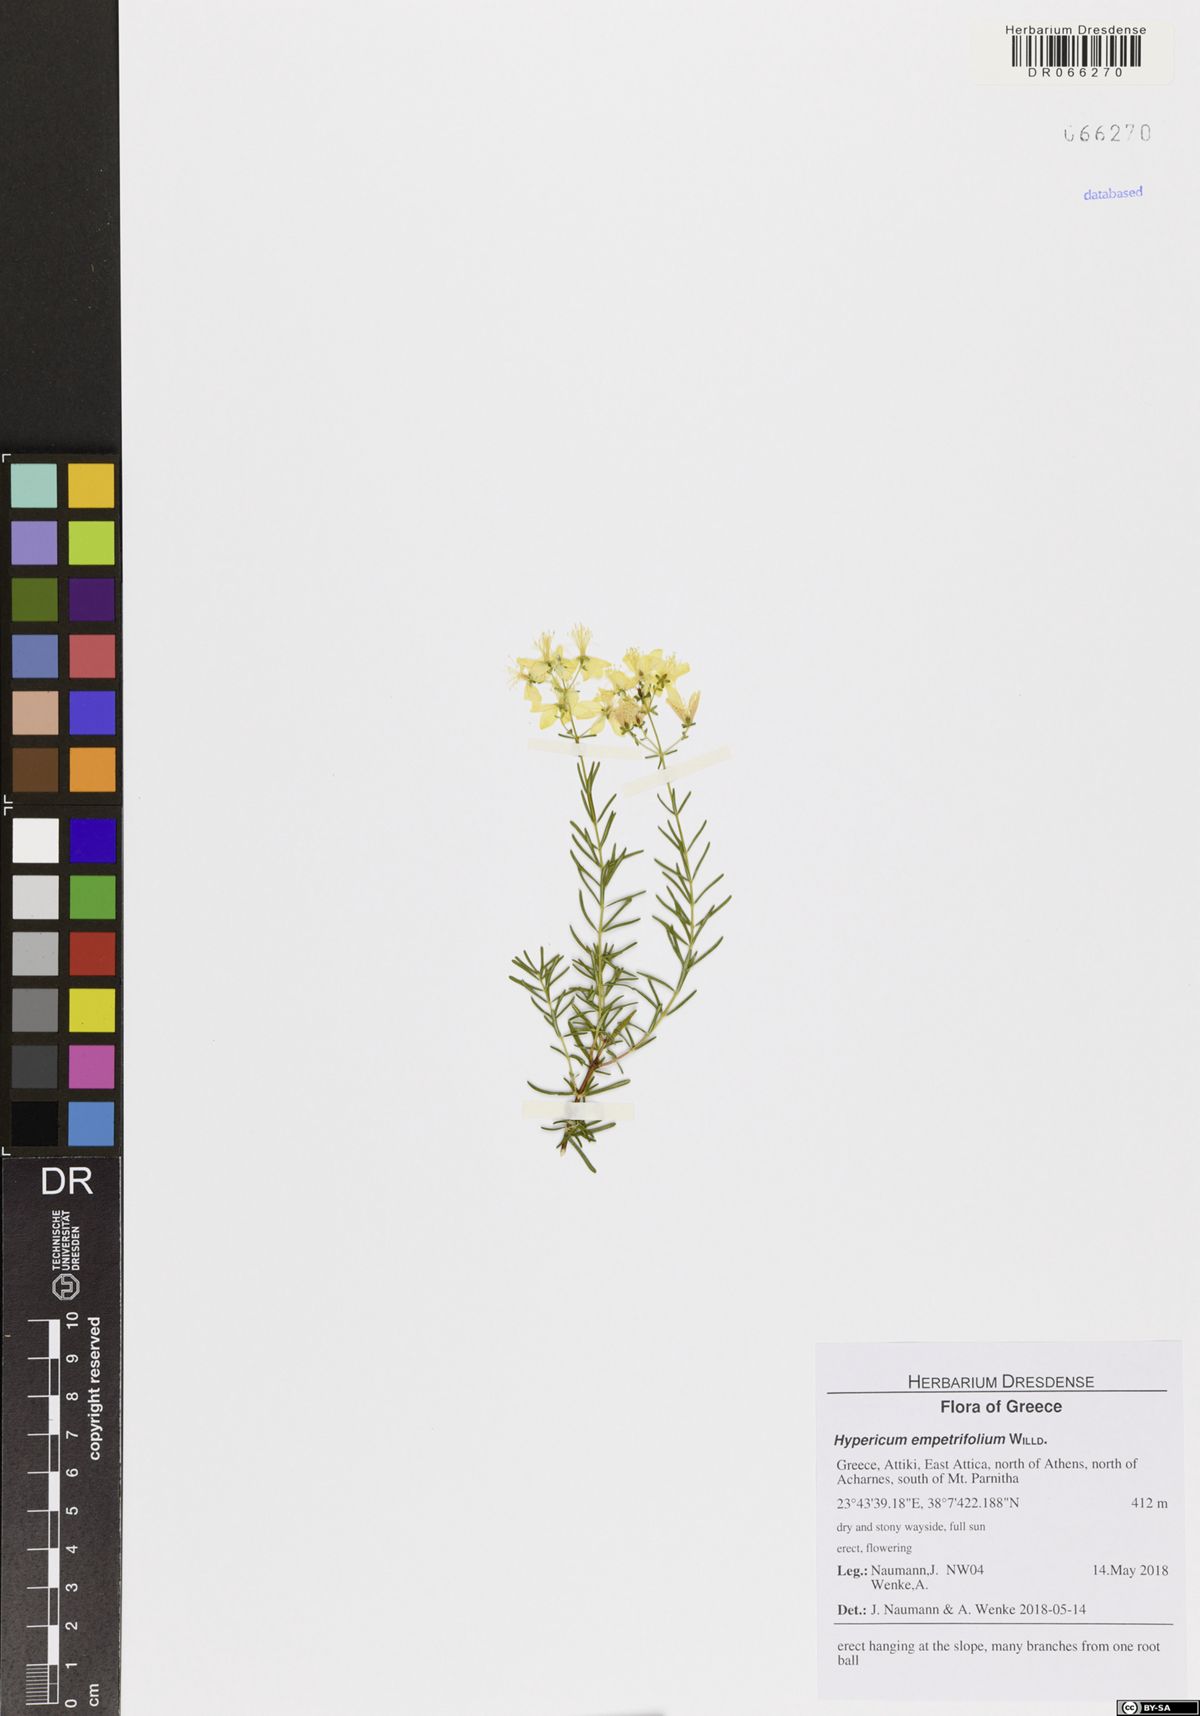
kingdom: Plantae
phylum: Tracheophyta
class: Magnoliopsida
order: Malpighiales
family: Hypericaceae
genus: Hypericum
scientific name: Hypericum empetrifolium
